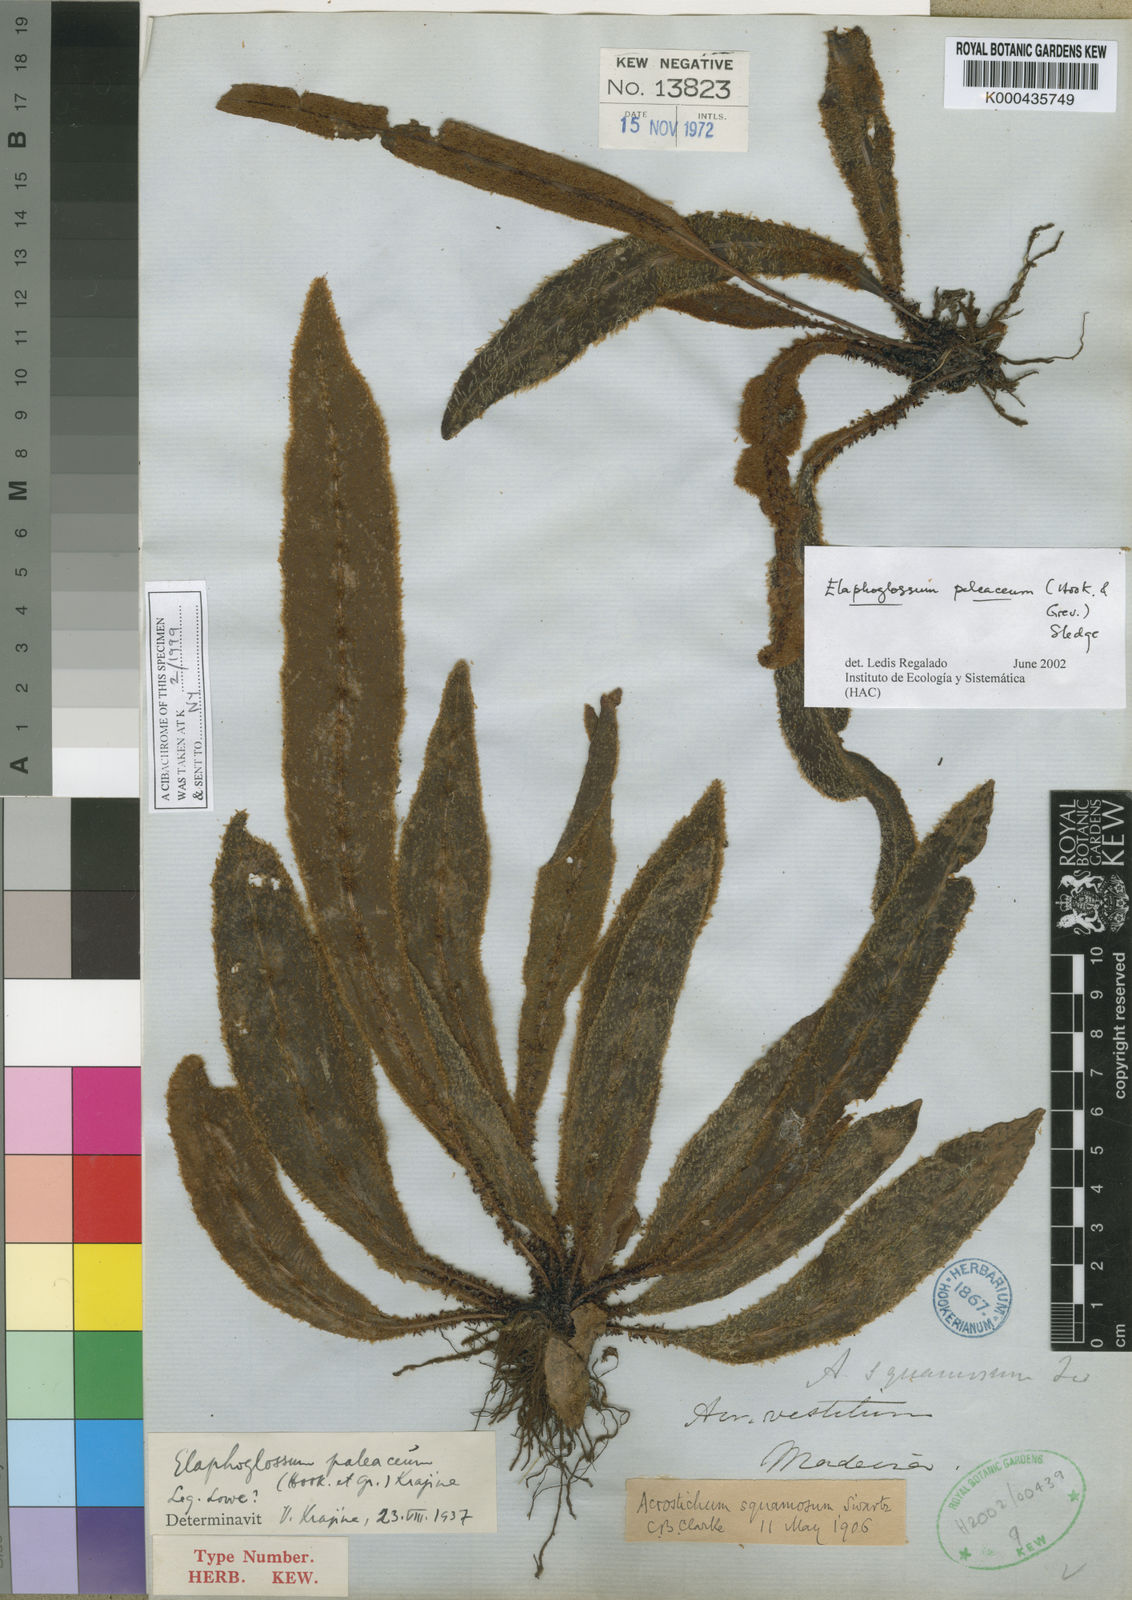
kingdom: Plantae
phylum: Tracheophyta
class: Polypodiopsida
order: Polypodiales
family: Dryopteridaceae
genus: Elaphoglossum
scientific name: Elaphoglossum paleaceum
